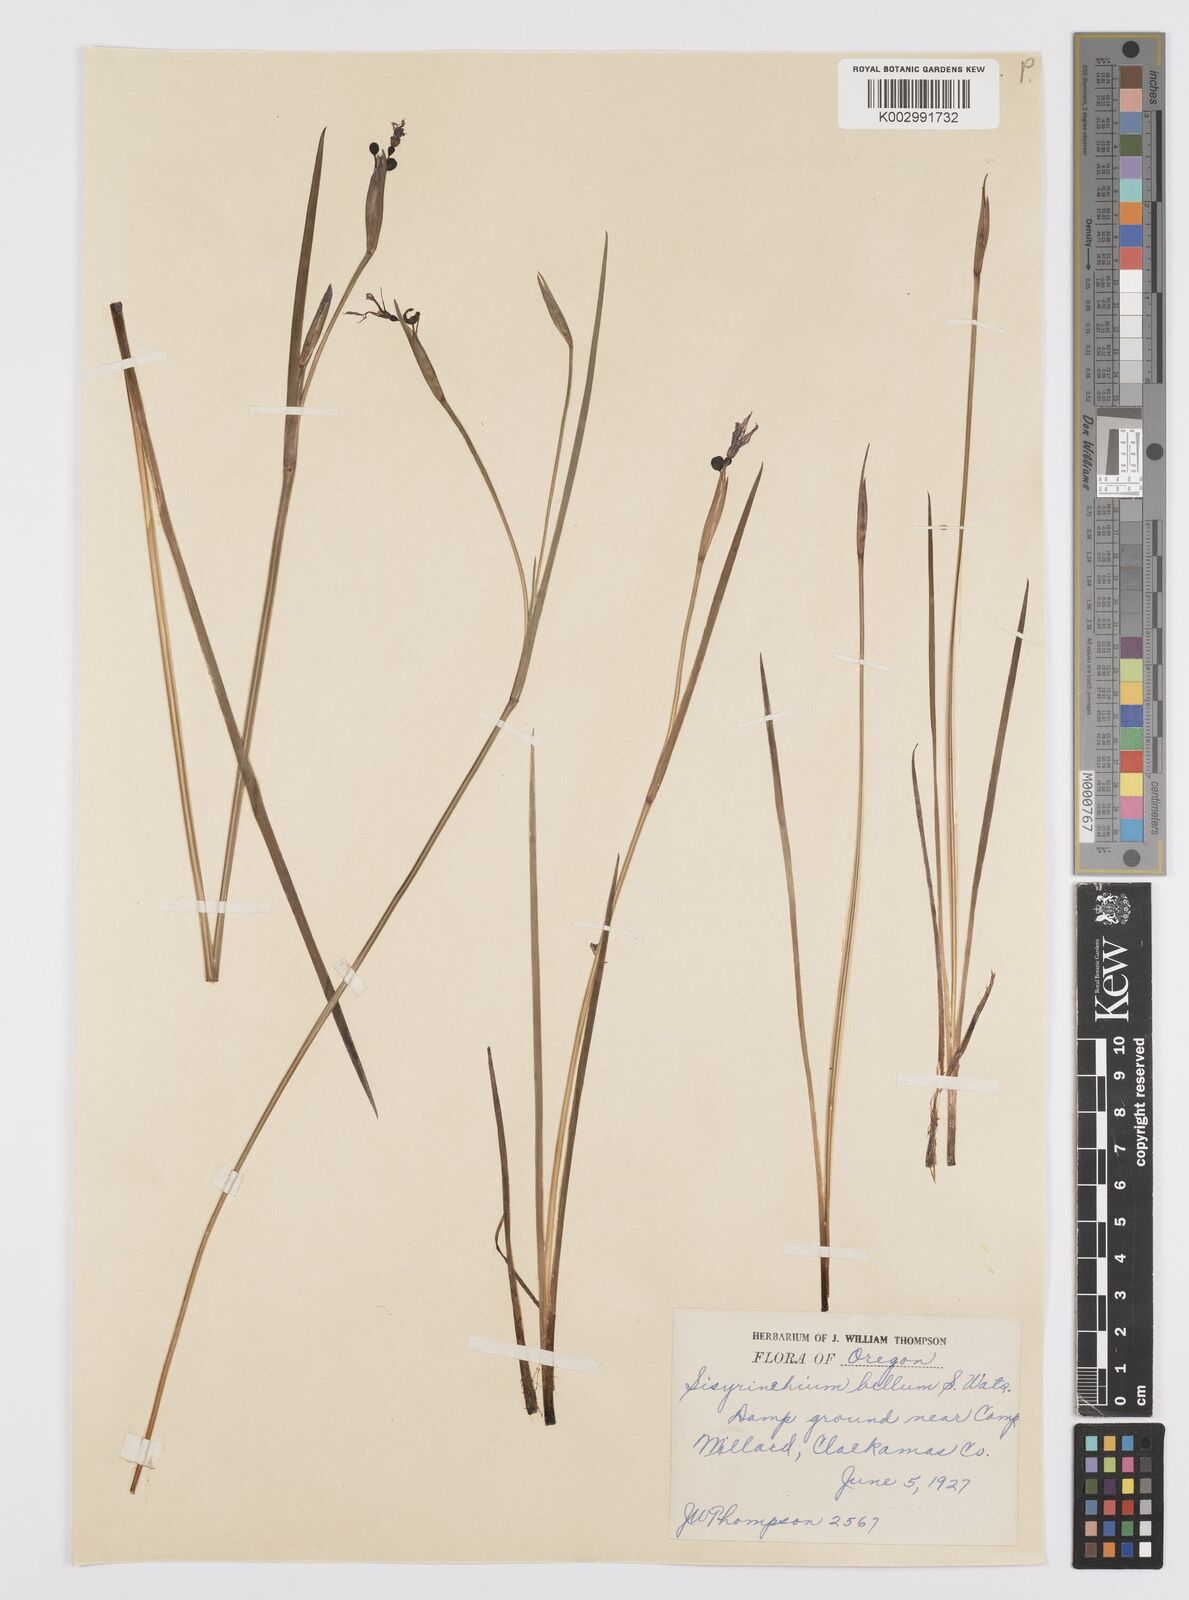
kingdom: Plantae
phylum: Tracheophyta
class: Liliopsida
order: Asparagales
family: Iridaceae
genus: Sisyrinchium
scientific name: Sisyrinchium bellum
